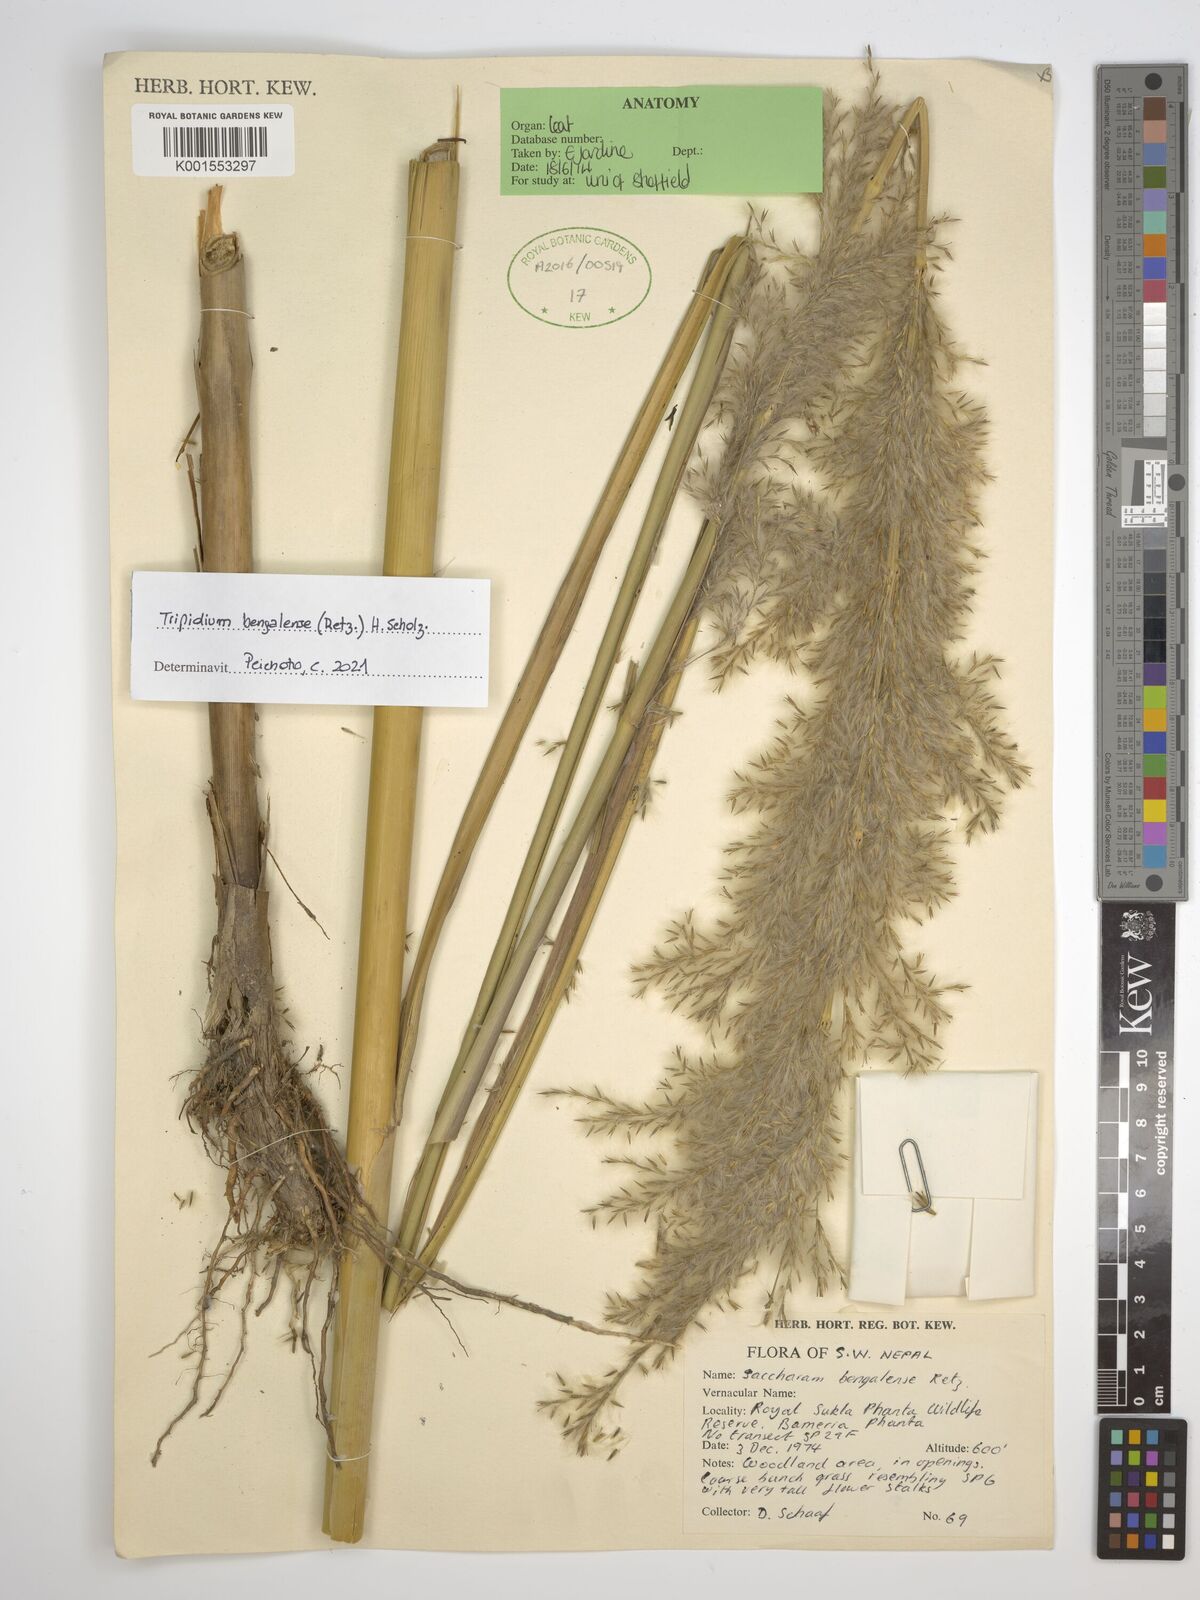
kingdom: Plantae
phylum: Tracheophyta
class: Liliopsida
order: Poales
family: Poaceae
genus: Tripidium
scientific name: Tripidium bengalense
